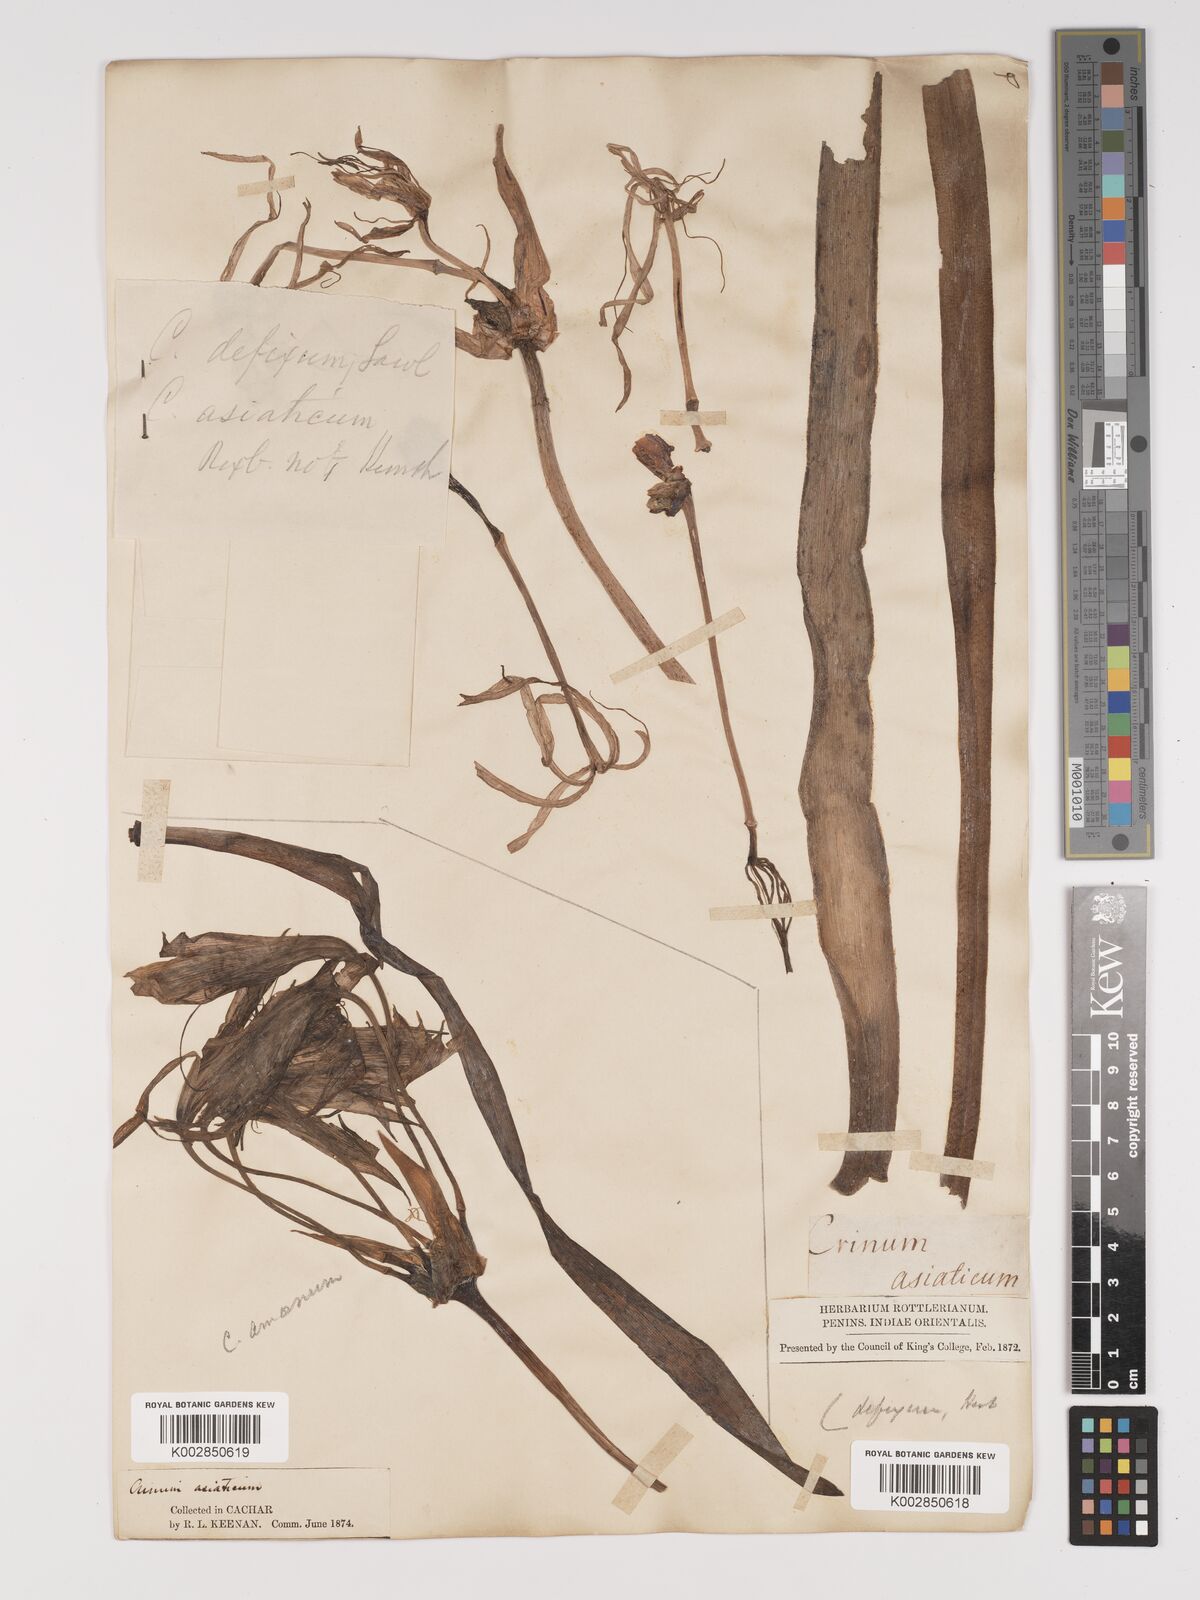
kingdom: Plantae
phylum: Tracheophyta
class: Liliopsida
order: Asparagales
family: Amaryllidaceae
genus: Crinum
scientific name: Crinum defixum
